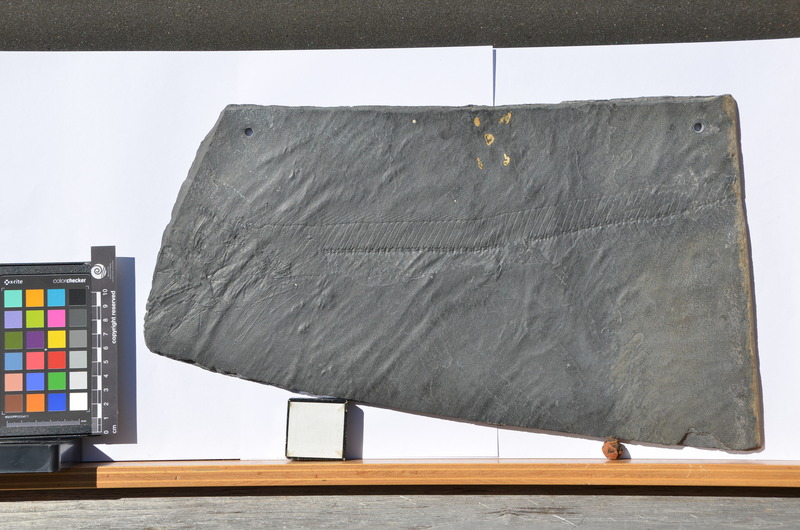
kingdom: Animalia
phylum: Chordata
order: Perciformes
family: Trichiuridae
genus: Lepidopus
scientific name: Lepidopus glarisianus
